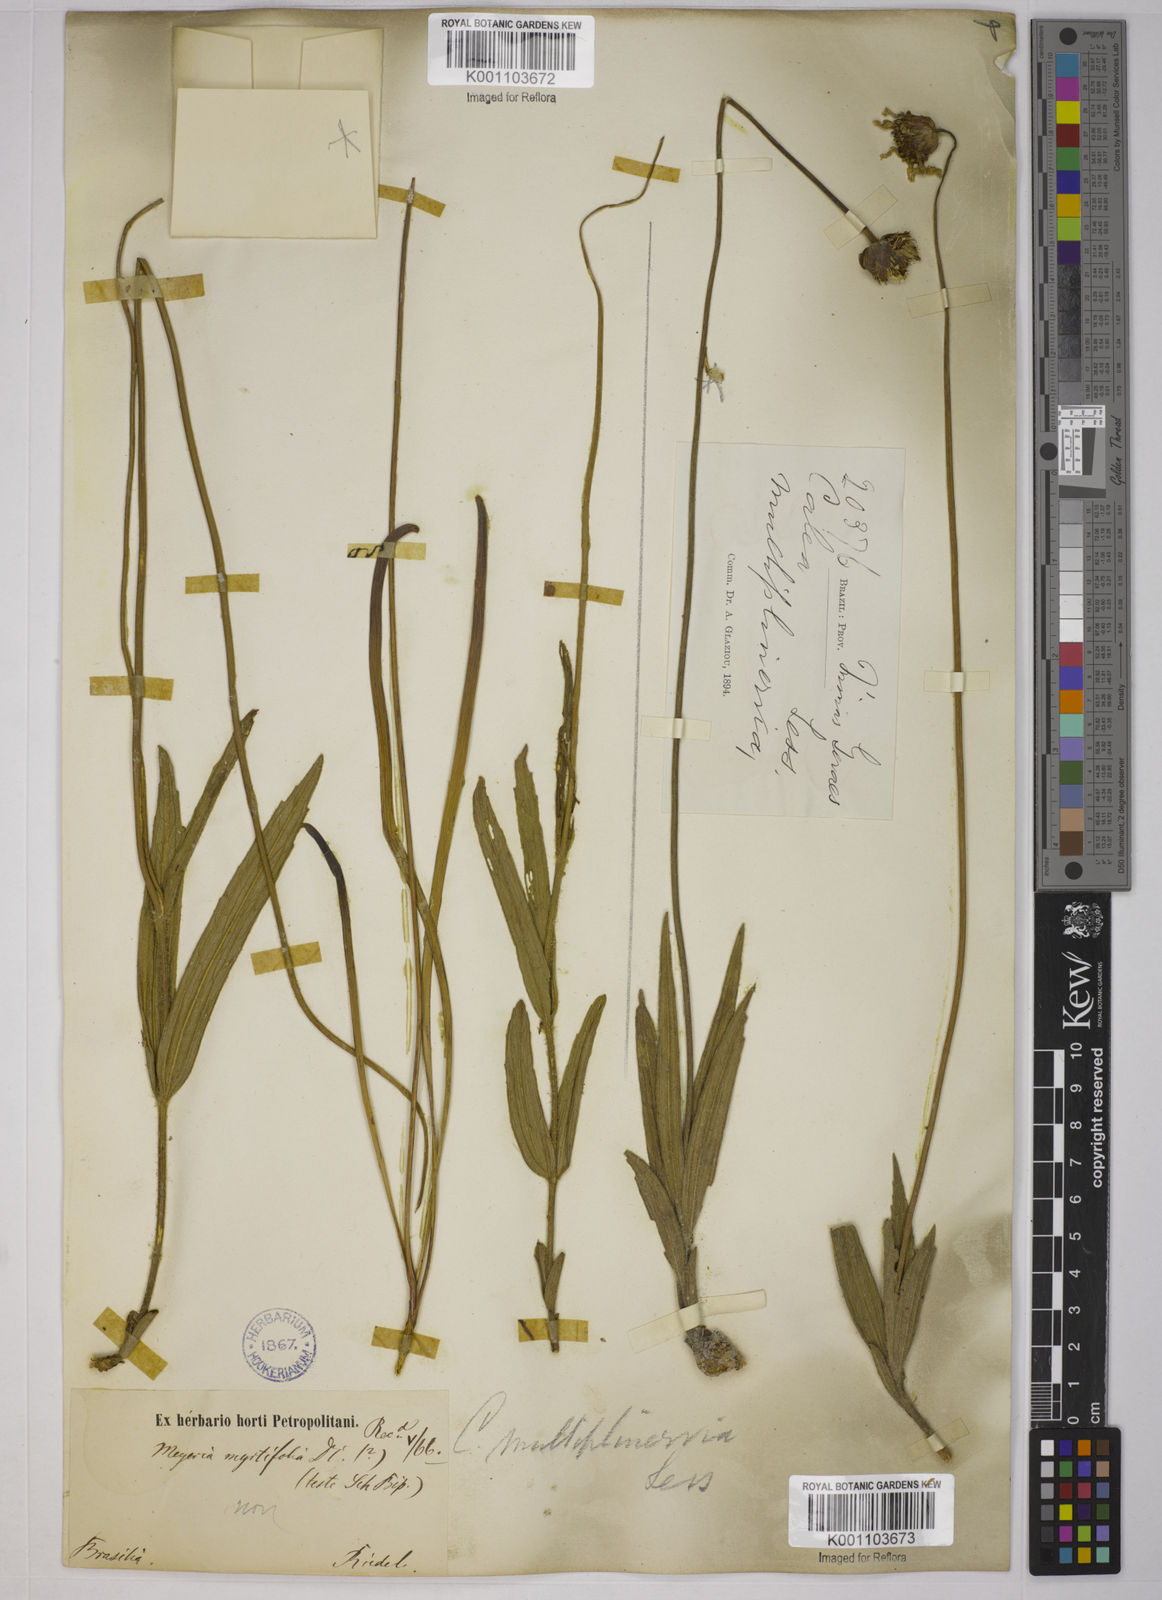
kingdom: Plantae
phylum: Tracheophyta
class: Magnoliopsida
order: Asterales
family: Asteraceae
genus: Calea
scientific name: Calea multiplinervia
